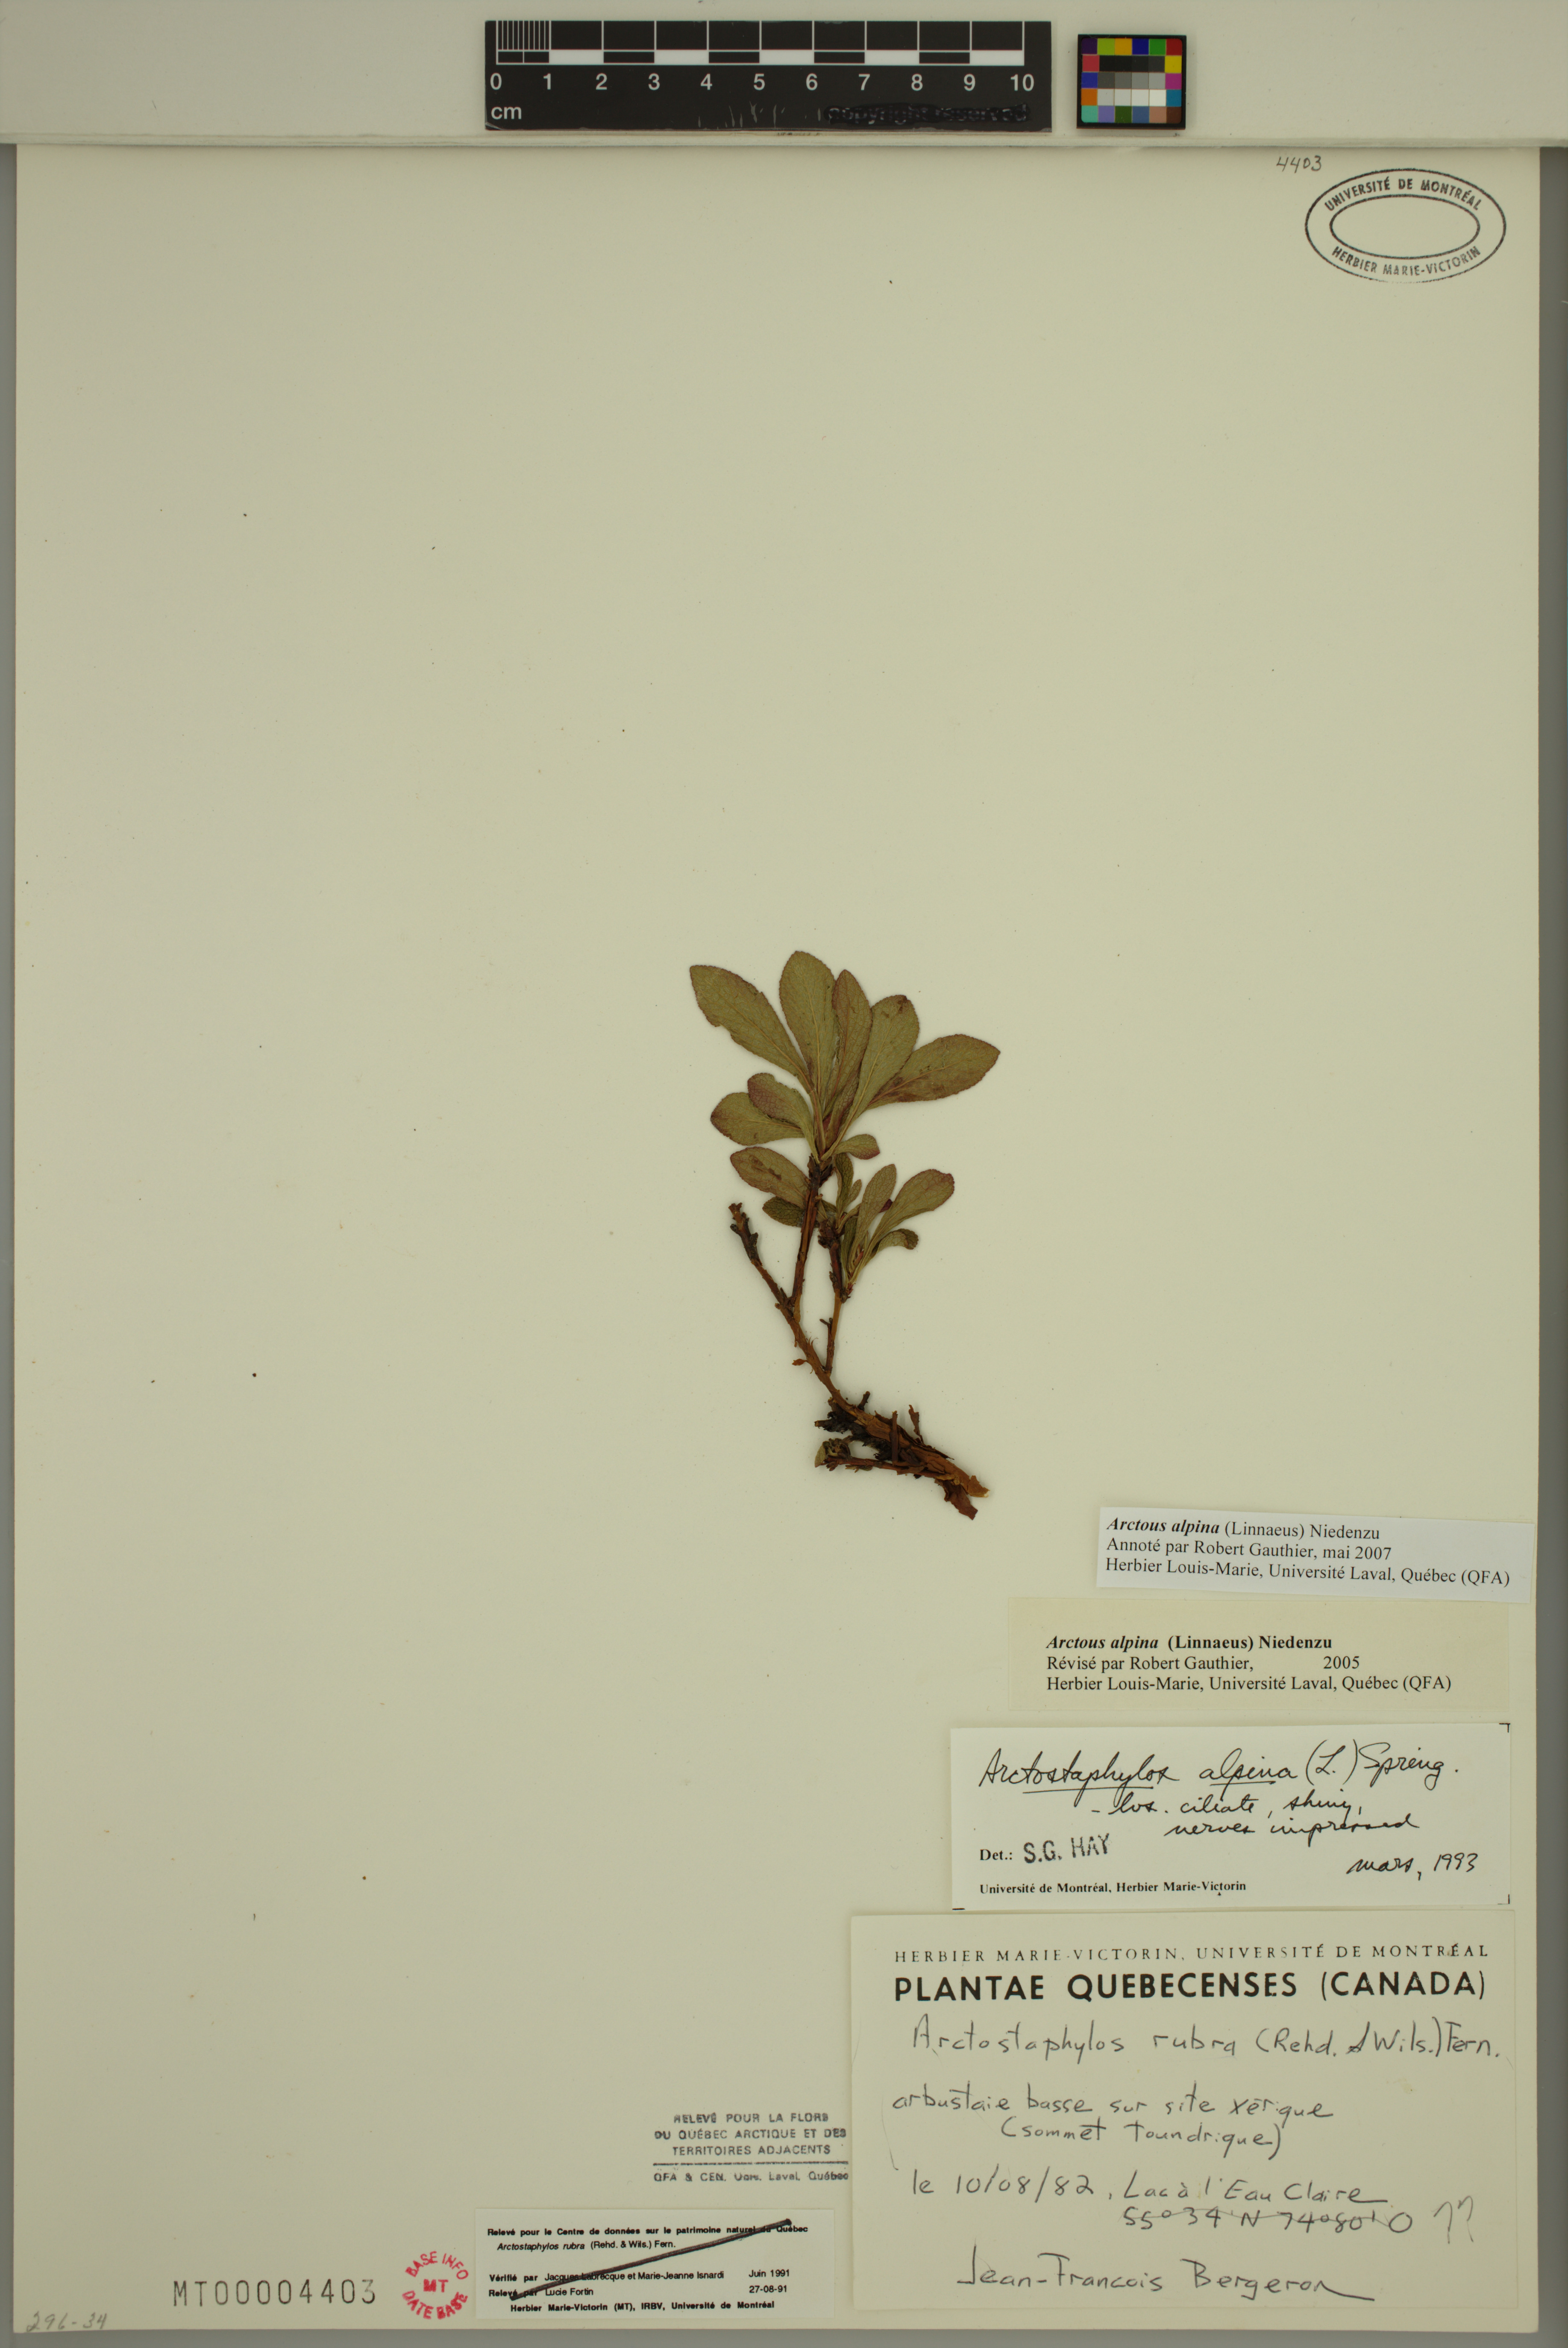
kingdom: Plantae
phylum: Tracheophyta
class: Magnoliopsida
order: Ericales
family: Ericaceae
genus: Arctostaphylos
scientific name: Arctostaphylos alpinus
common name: Alpine bearberry
